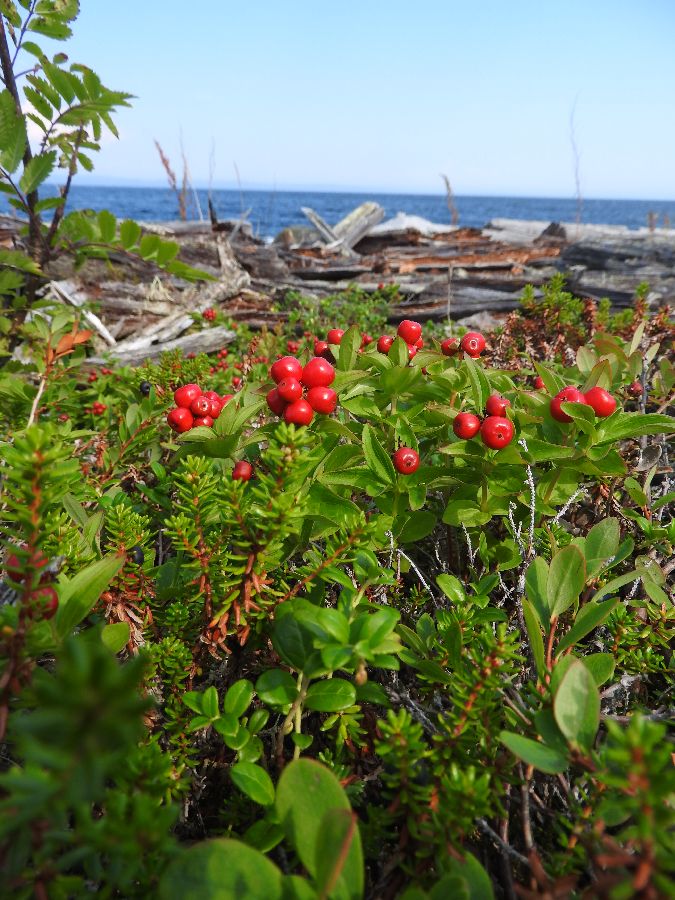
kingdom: Plantae
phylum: Tracheophyta
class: Magnoliopsida
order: Cornales
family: Cornaceae
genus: Cornus
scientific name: Cornus suecica
